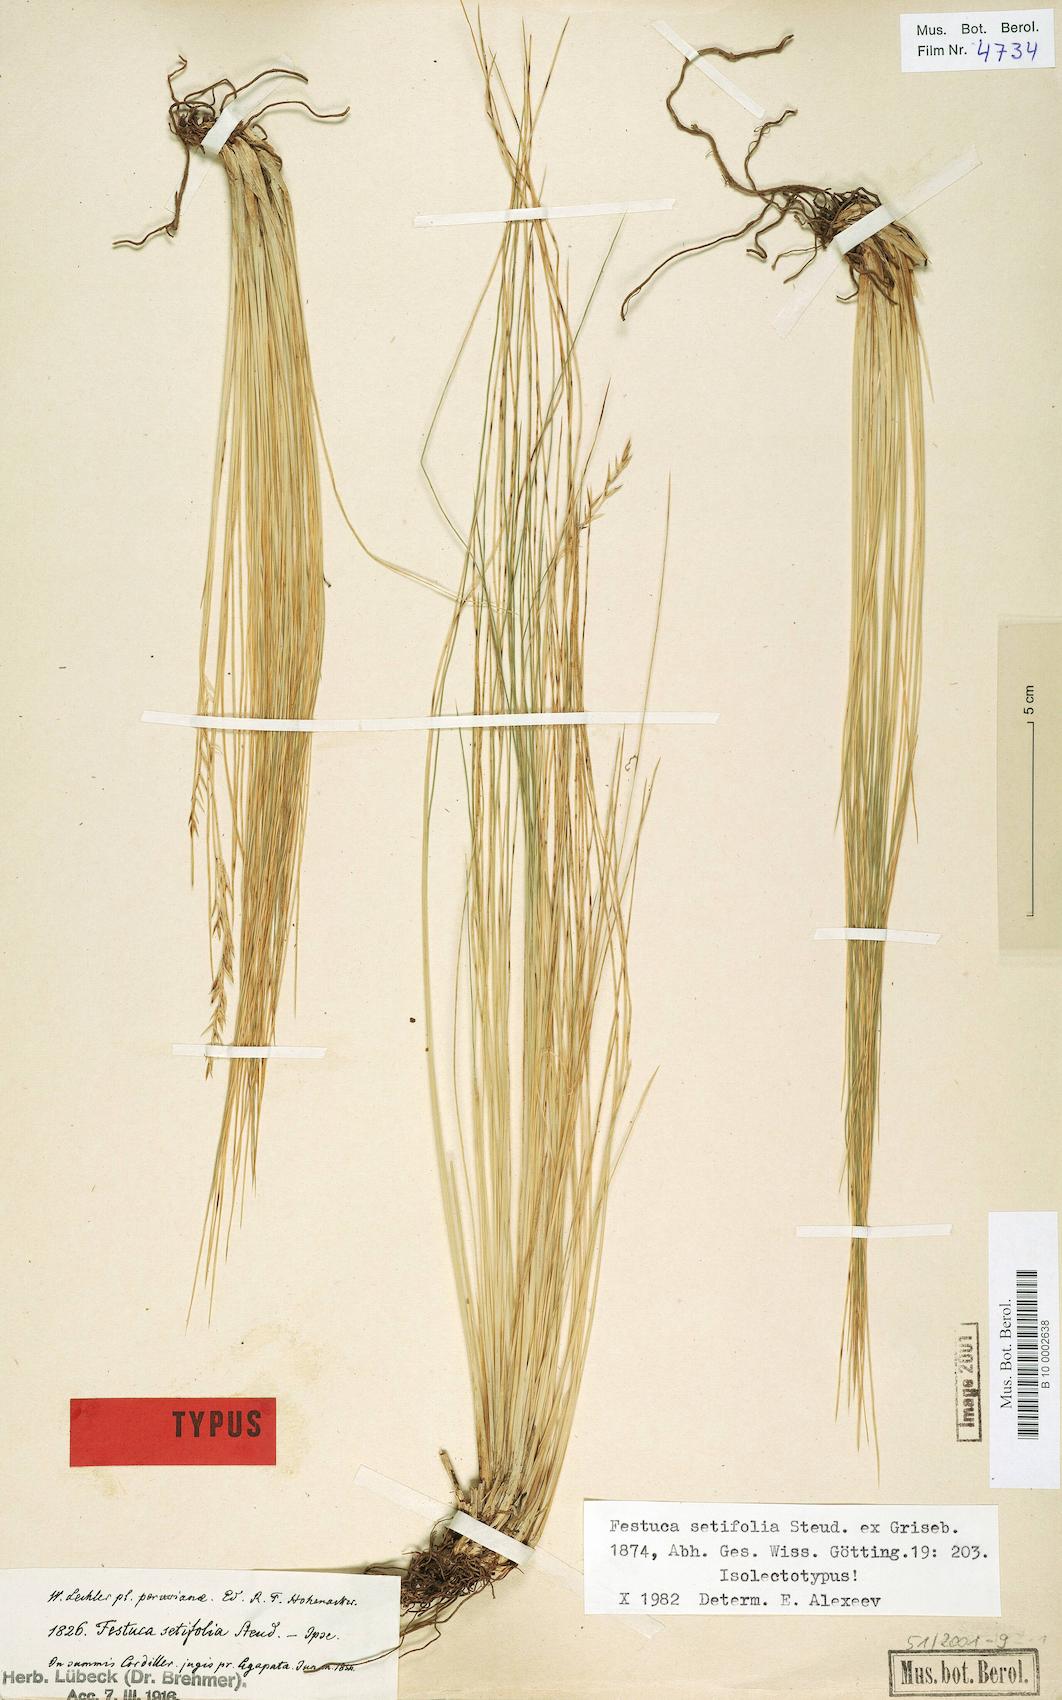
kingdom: Plantae
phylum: Tracheophyta
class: Liliopsida
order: Poales
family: Poaceae
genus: Festuca
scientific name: Festuca setifolia
